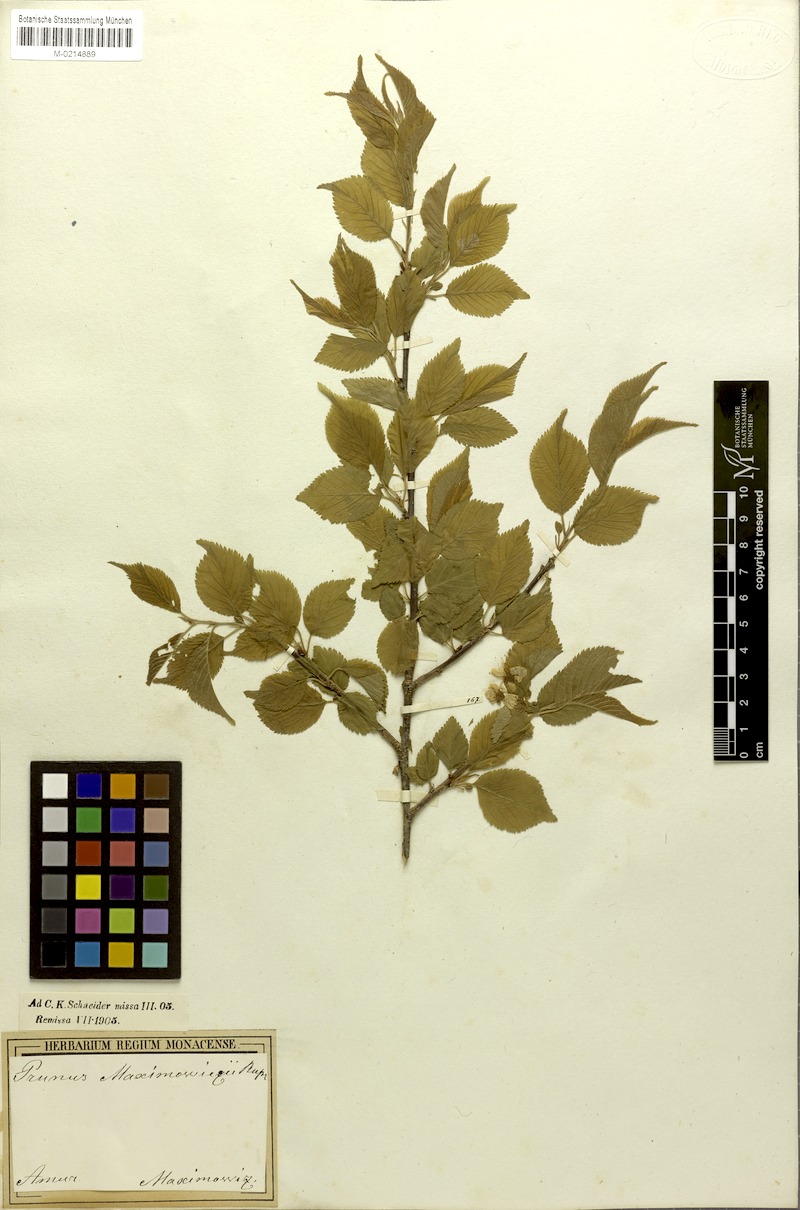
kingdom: Plantae
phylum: Tracheophyta
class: Magnoliopsida
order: Rosales
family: Rosaceae
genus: Prunus
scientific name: Prunus maximowiczii
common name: Korean cherry
